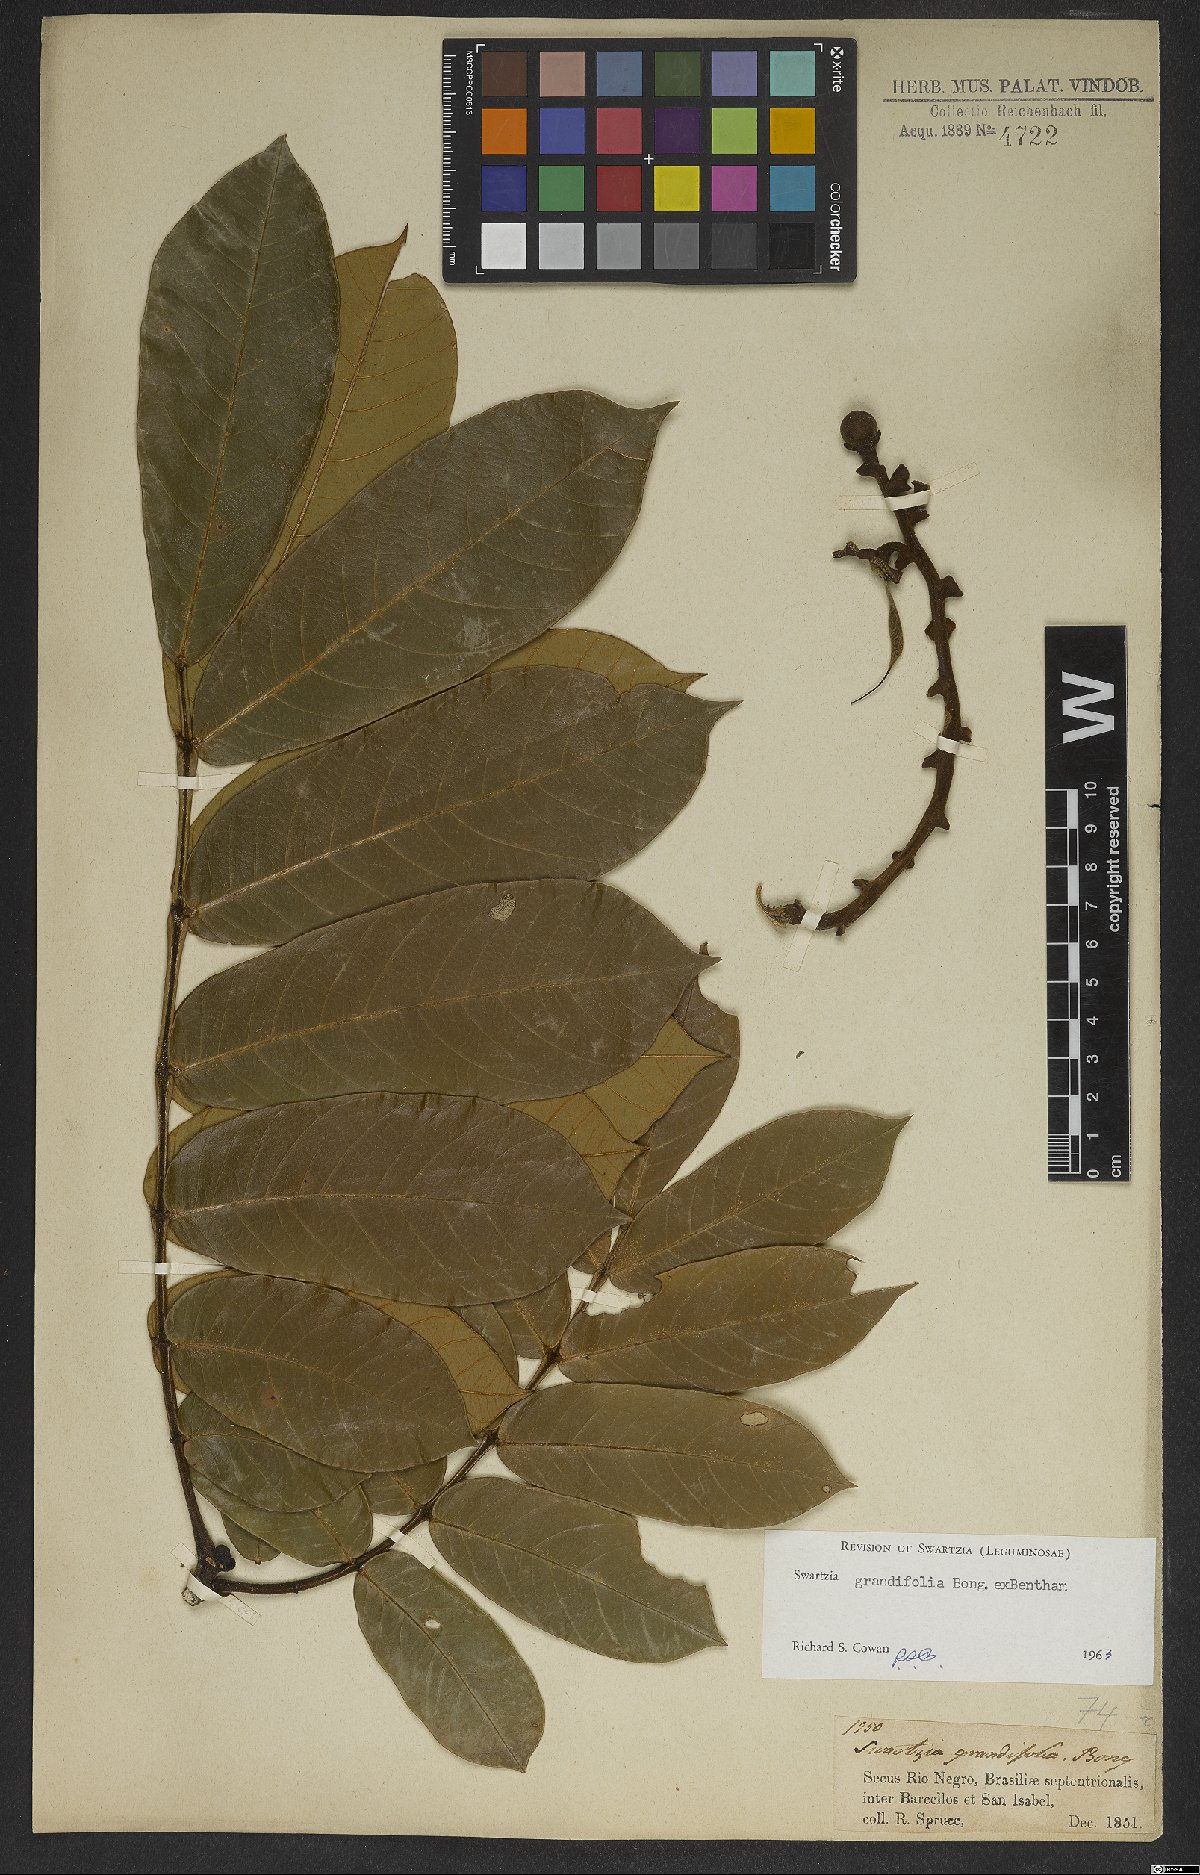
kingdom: Plantae
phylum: Tracheophyta
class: Magnoliopsida
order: Fabales
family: Fabaceae
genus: Swartzia
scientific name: Swartzia grandifolia
